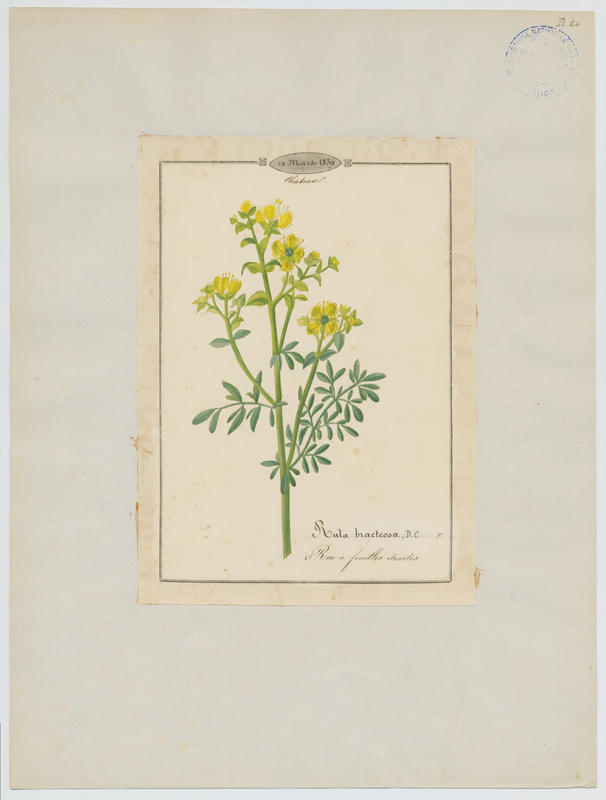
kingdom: Plantae
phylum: Tracheophyta
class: Magnoliopsida
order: Sapindales
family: Rutaceae
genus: Ruta
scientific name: Ruta chalepensis
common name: Fringed rue
